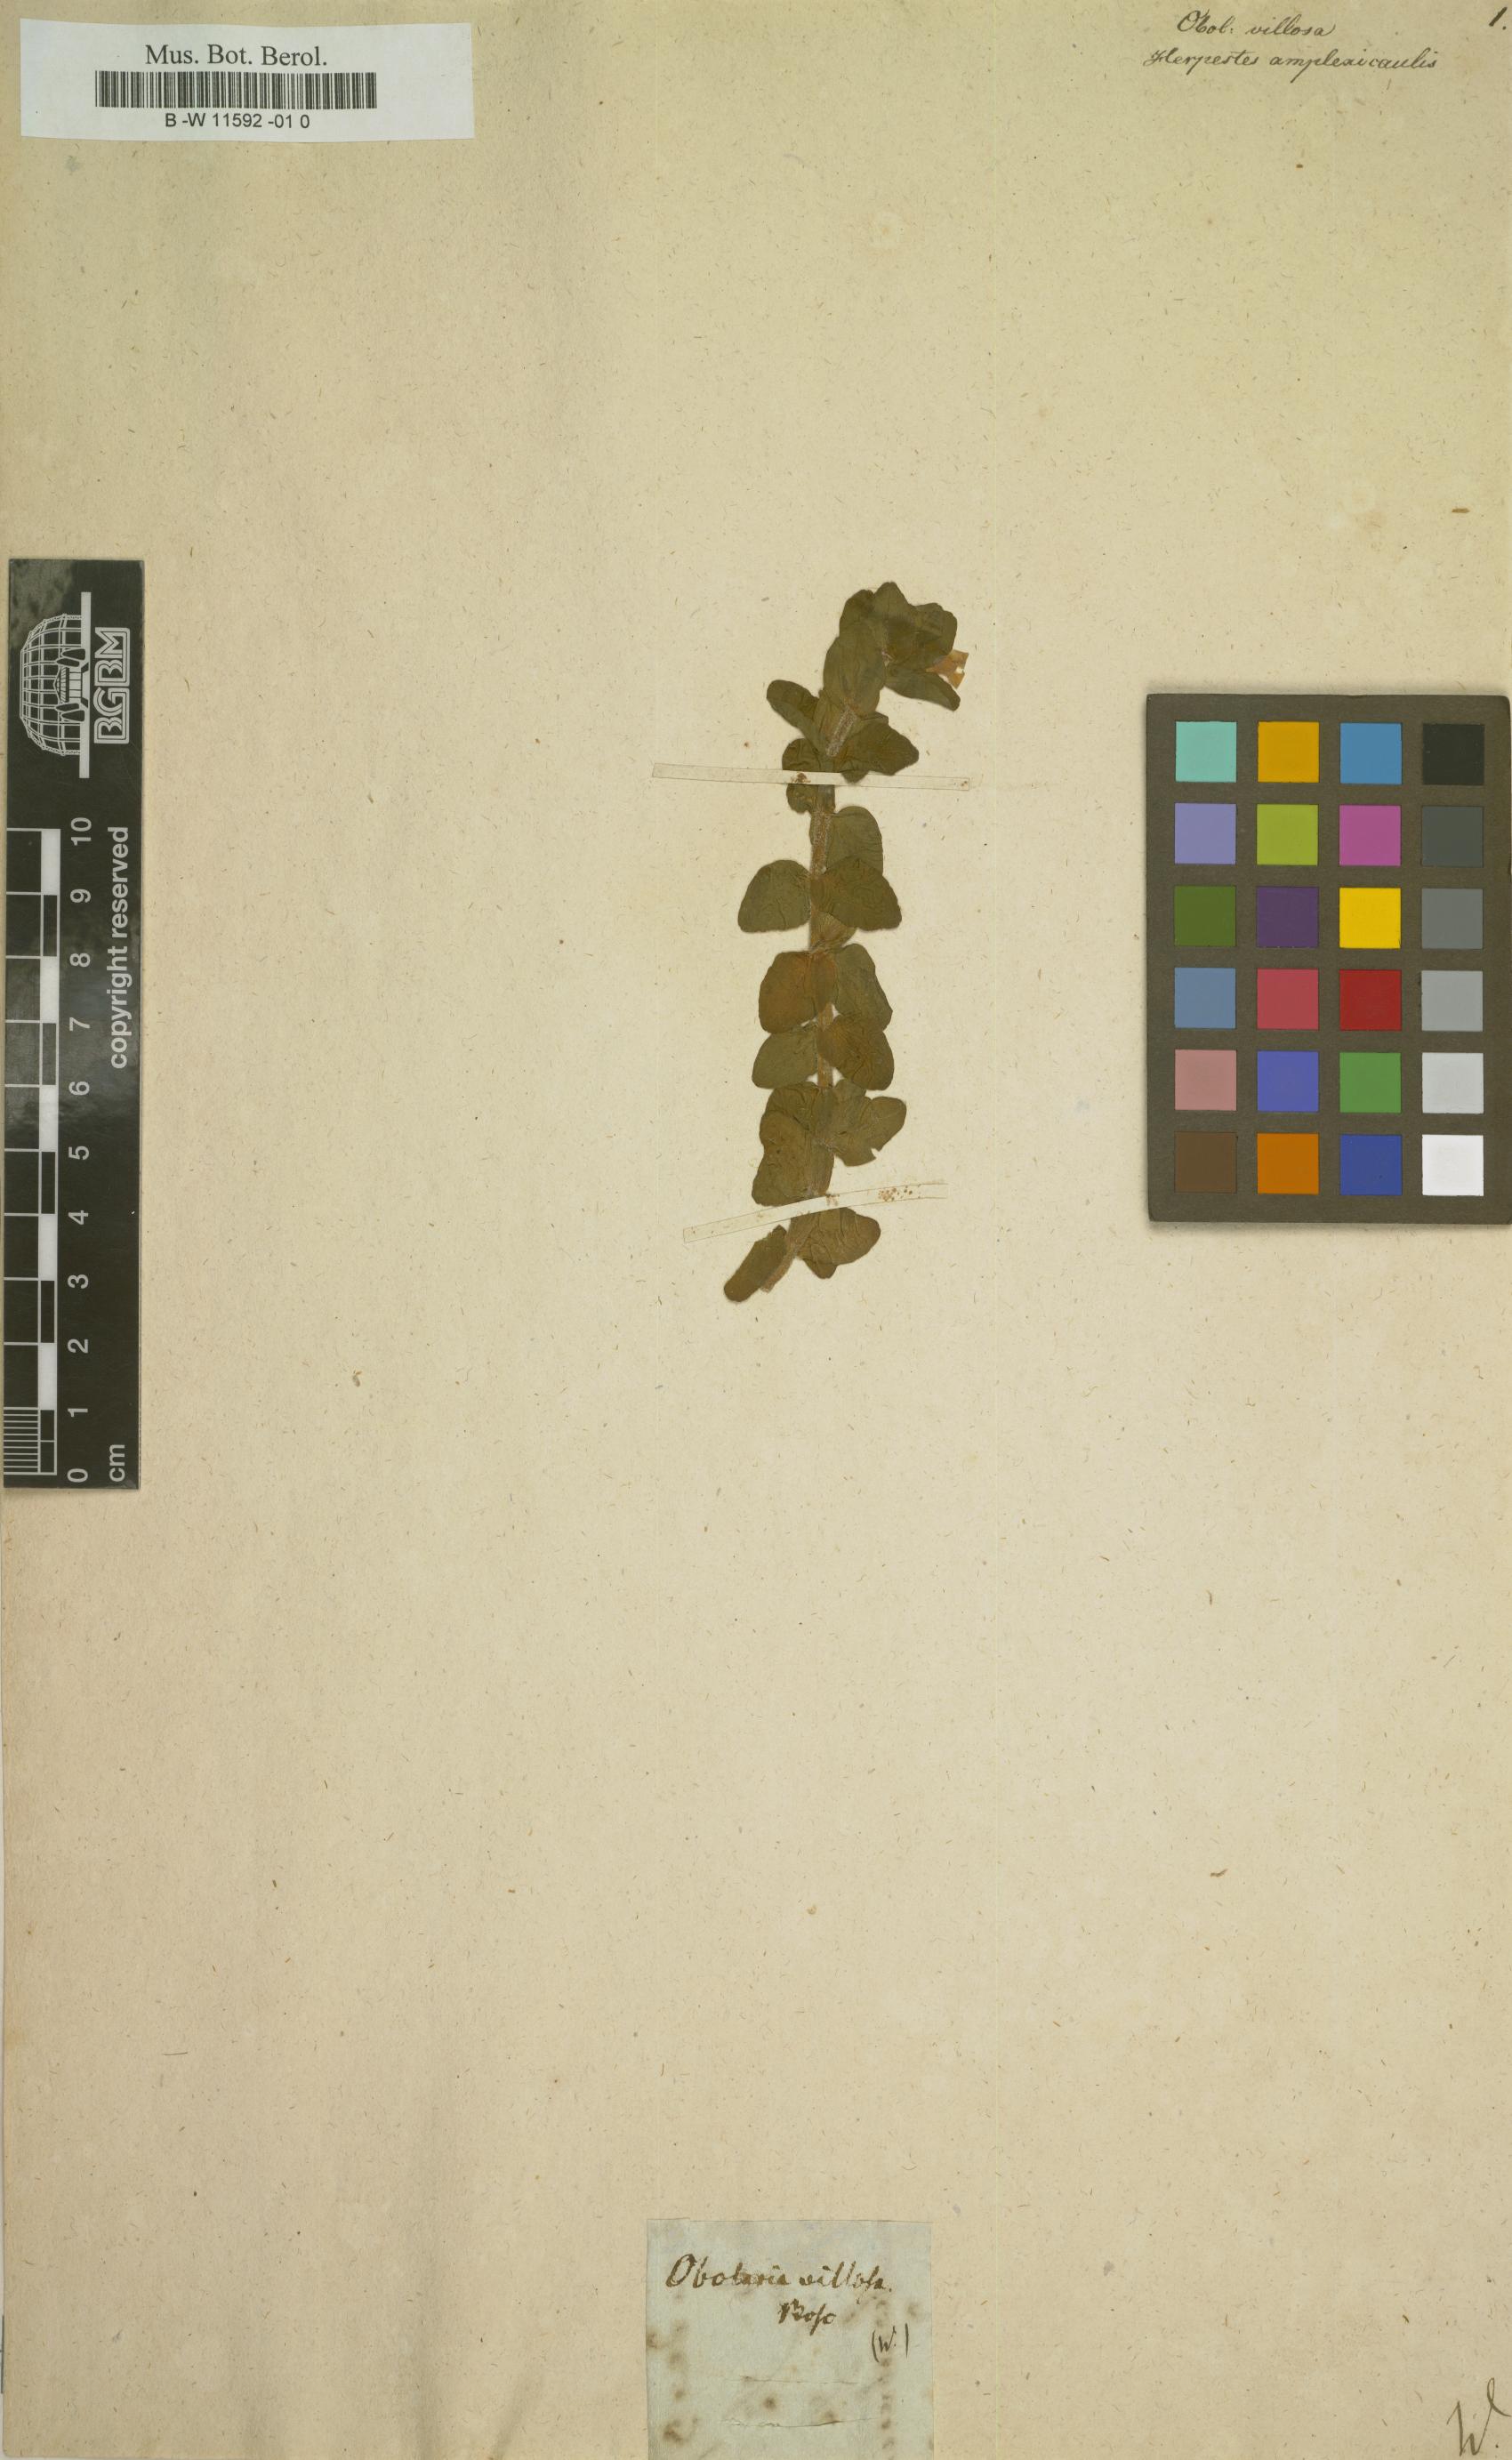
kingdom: Plantae
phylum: Tracheophyta
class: Magnoliopsida
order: Gentianales
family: Gentianaceae
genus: Obolaria
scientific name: Obolaria
